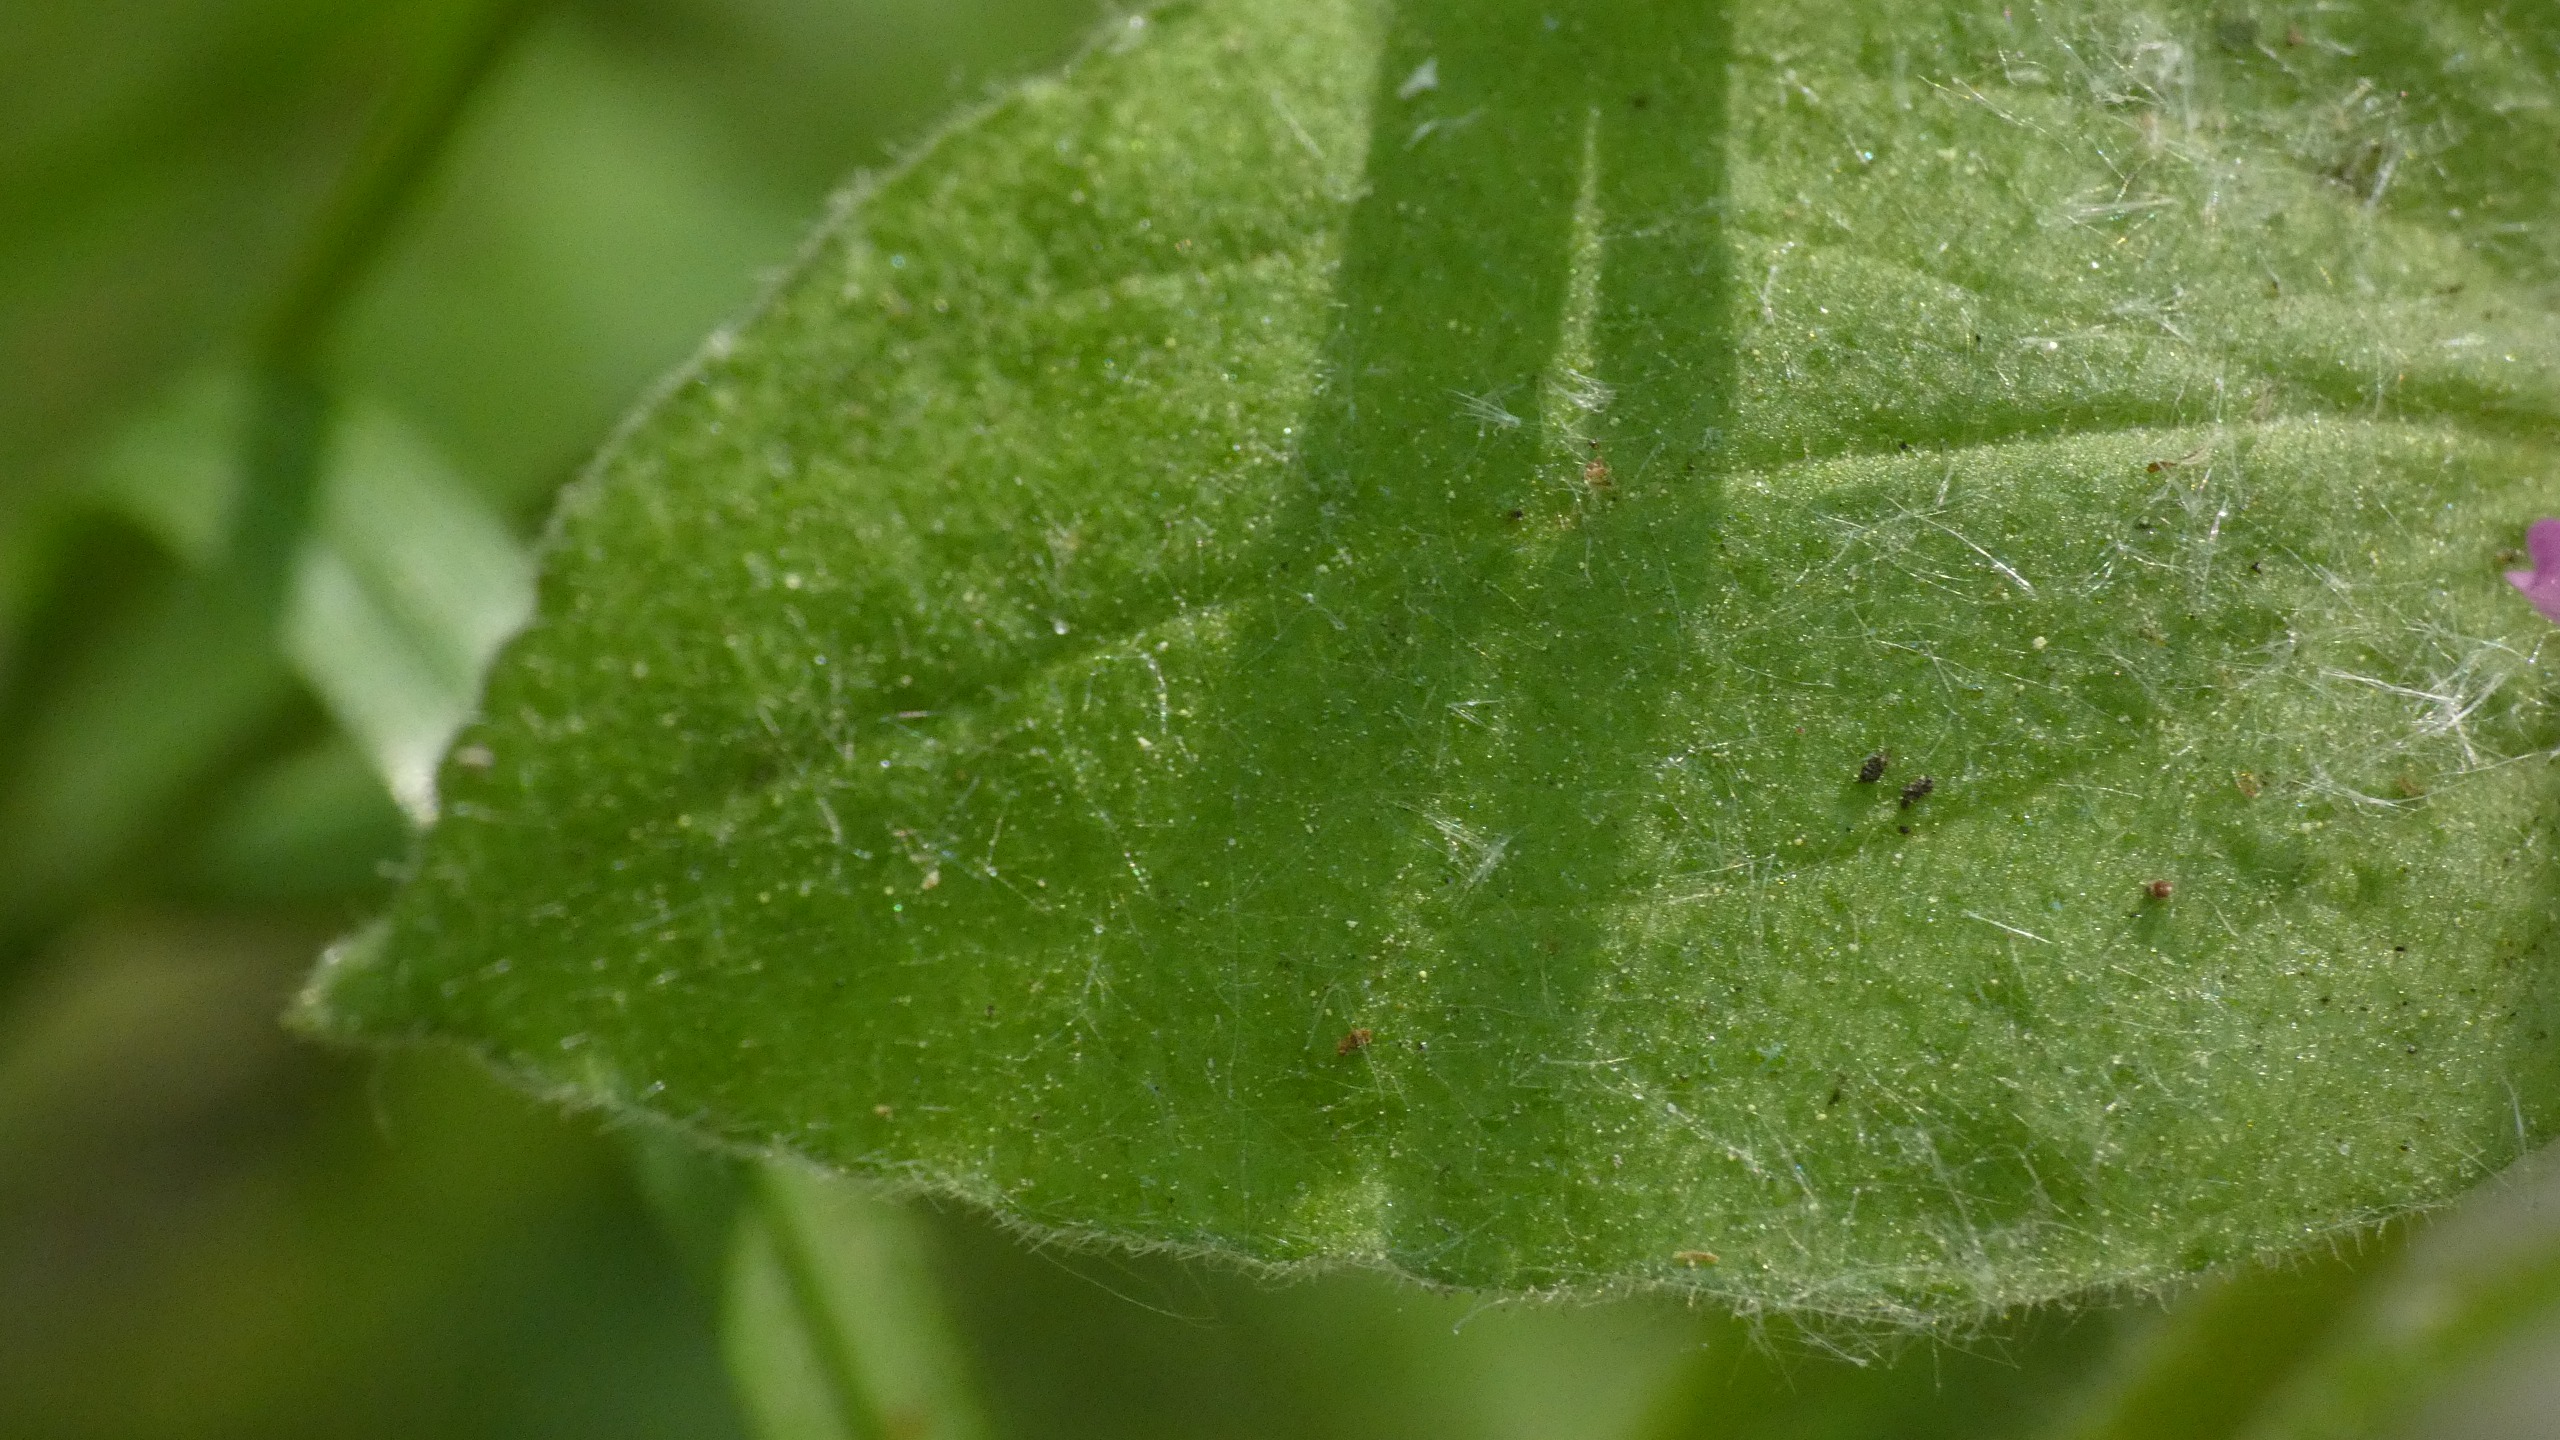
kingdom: Plantae
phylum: Tracheophyta
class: Magnoliopsida
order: Caryophyllales
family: Caryophyllaceae
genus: Silene
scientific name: Silene dioica
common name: Dagpragtstjerne
